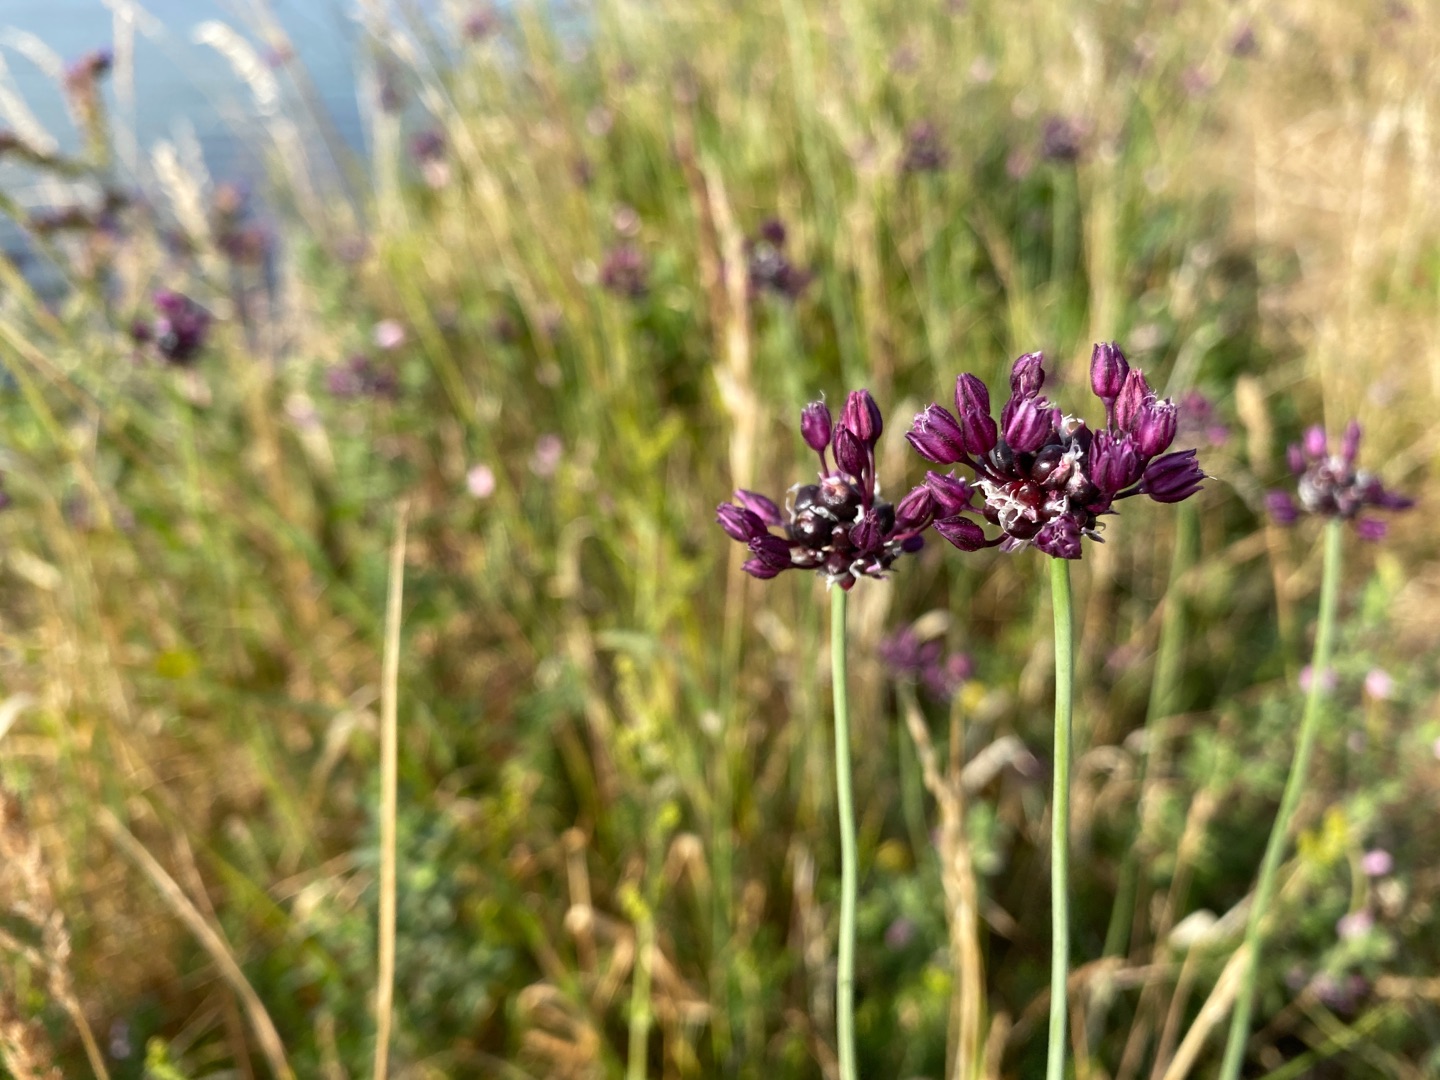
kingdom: Plantae
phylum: Tracheophyta
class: Liliopsida
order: Asparagales
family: Amaryllidaceae
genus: Allium
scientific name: Allium scorodoprasum
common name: Skov-løg
